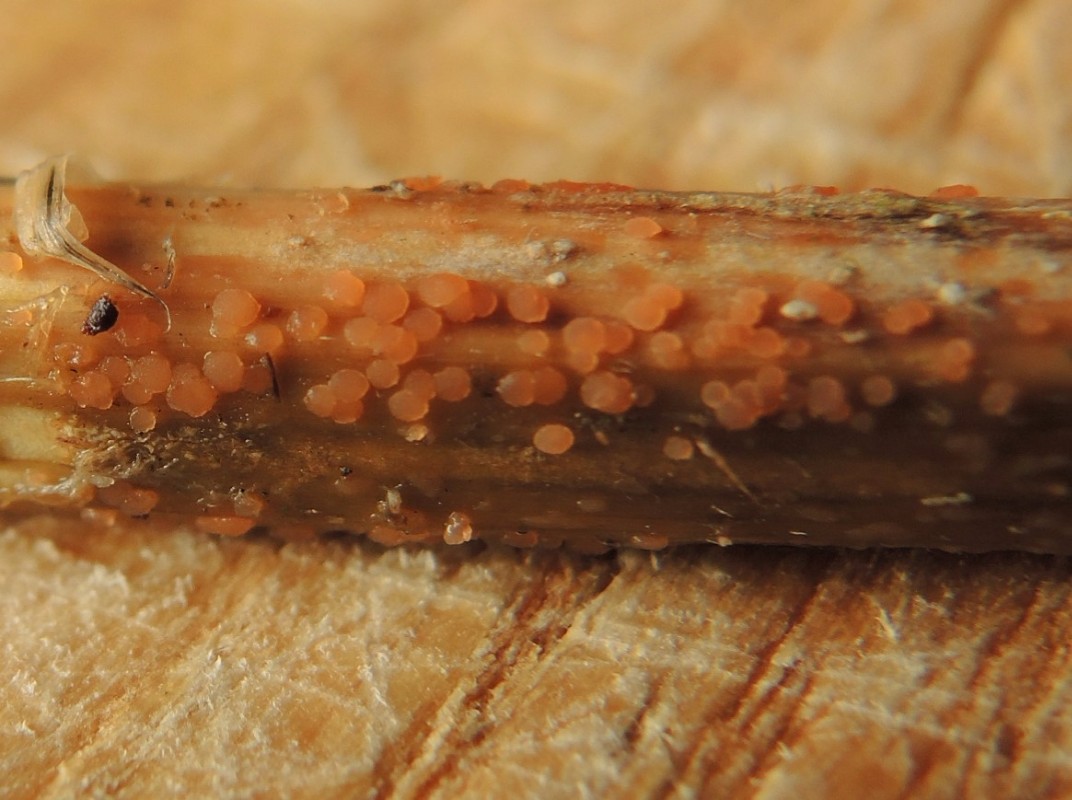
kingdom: Fungi
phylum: Ascomycota
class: Leotiomycetes
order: Helotiales
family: Calloriaceae
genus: Calloria
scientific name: Calloria urticae
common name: nælde-orangeskive
